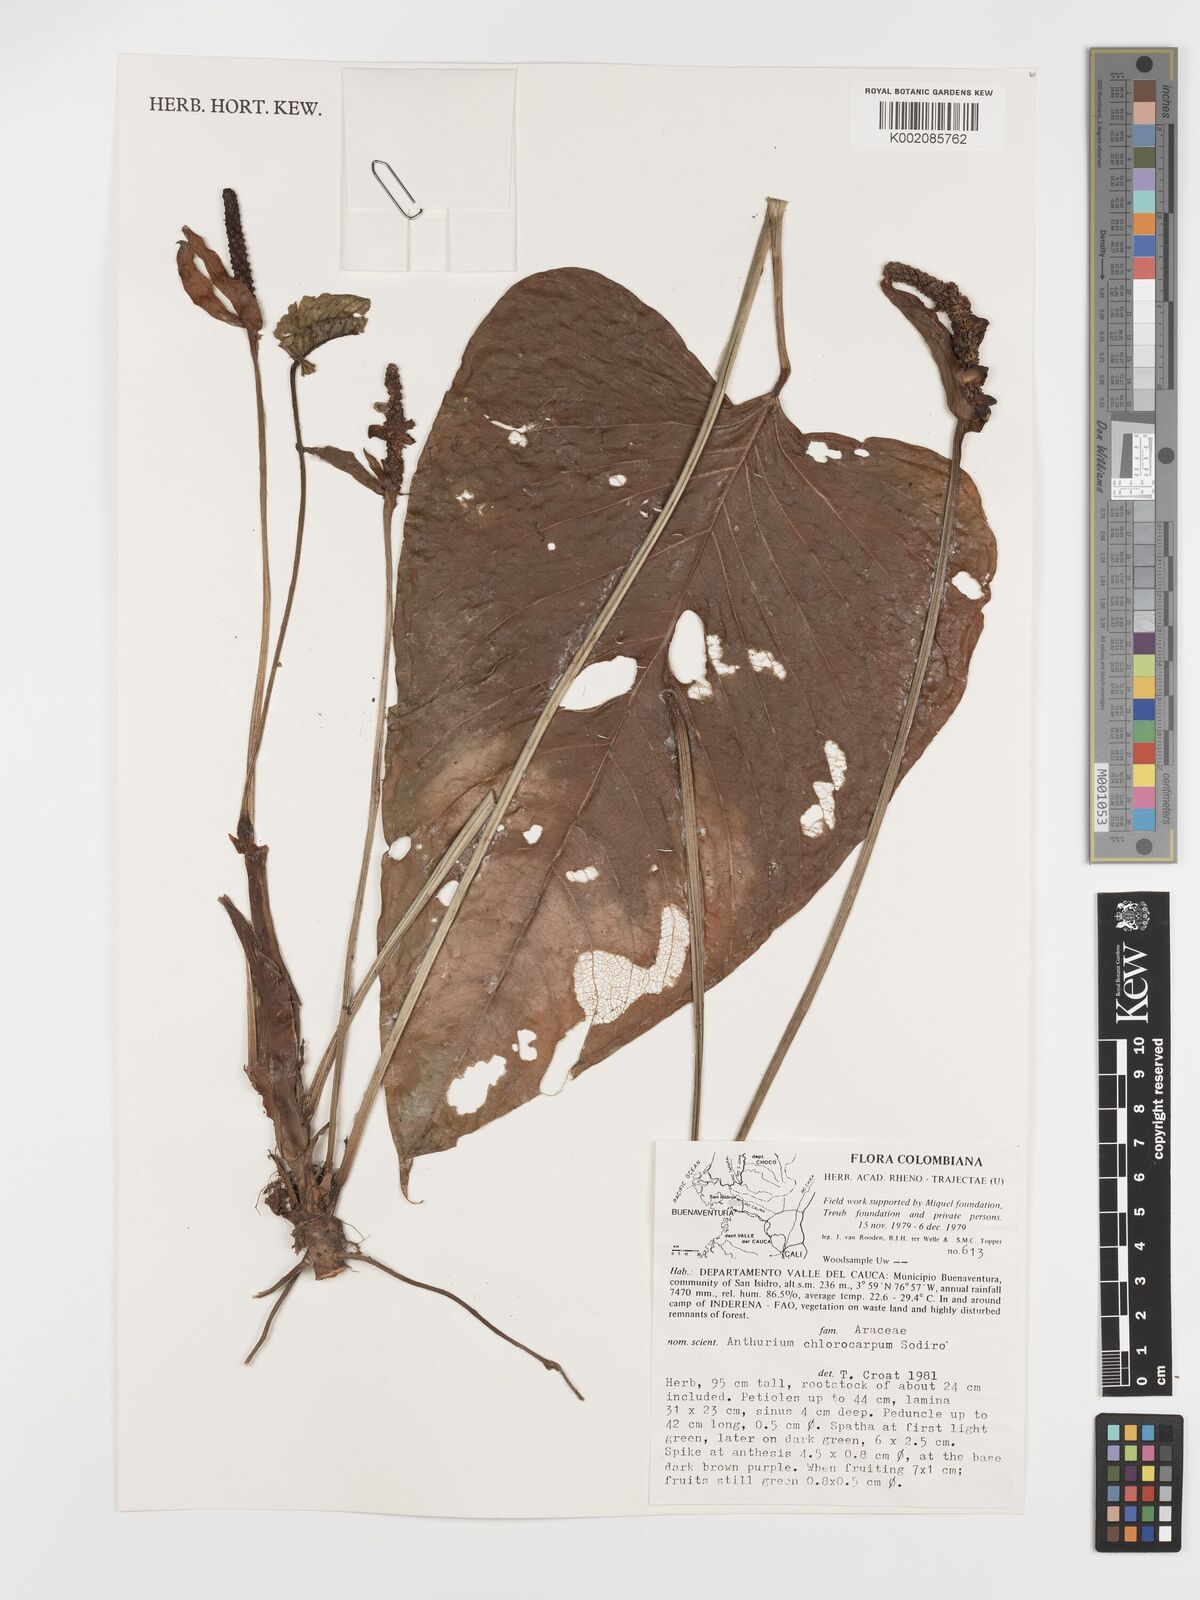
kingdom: Plantae
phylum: Tracheophyta
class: Liliopsida
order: Alismatales
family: Araceae
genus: Anthurium
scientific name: Anthurium monticola
